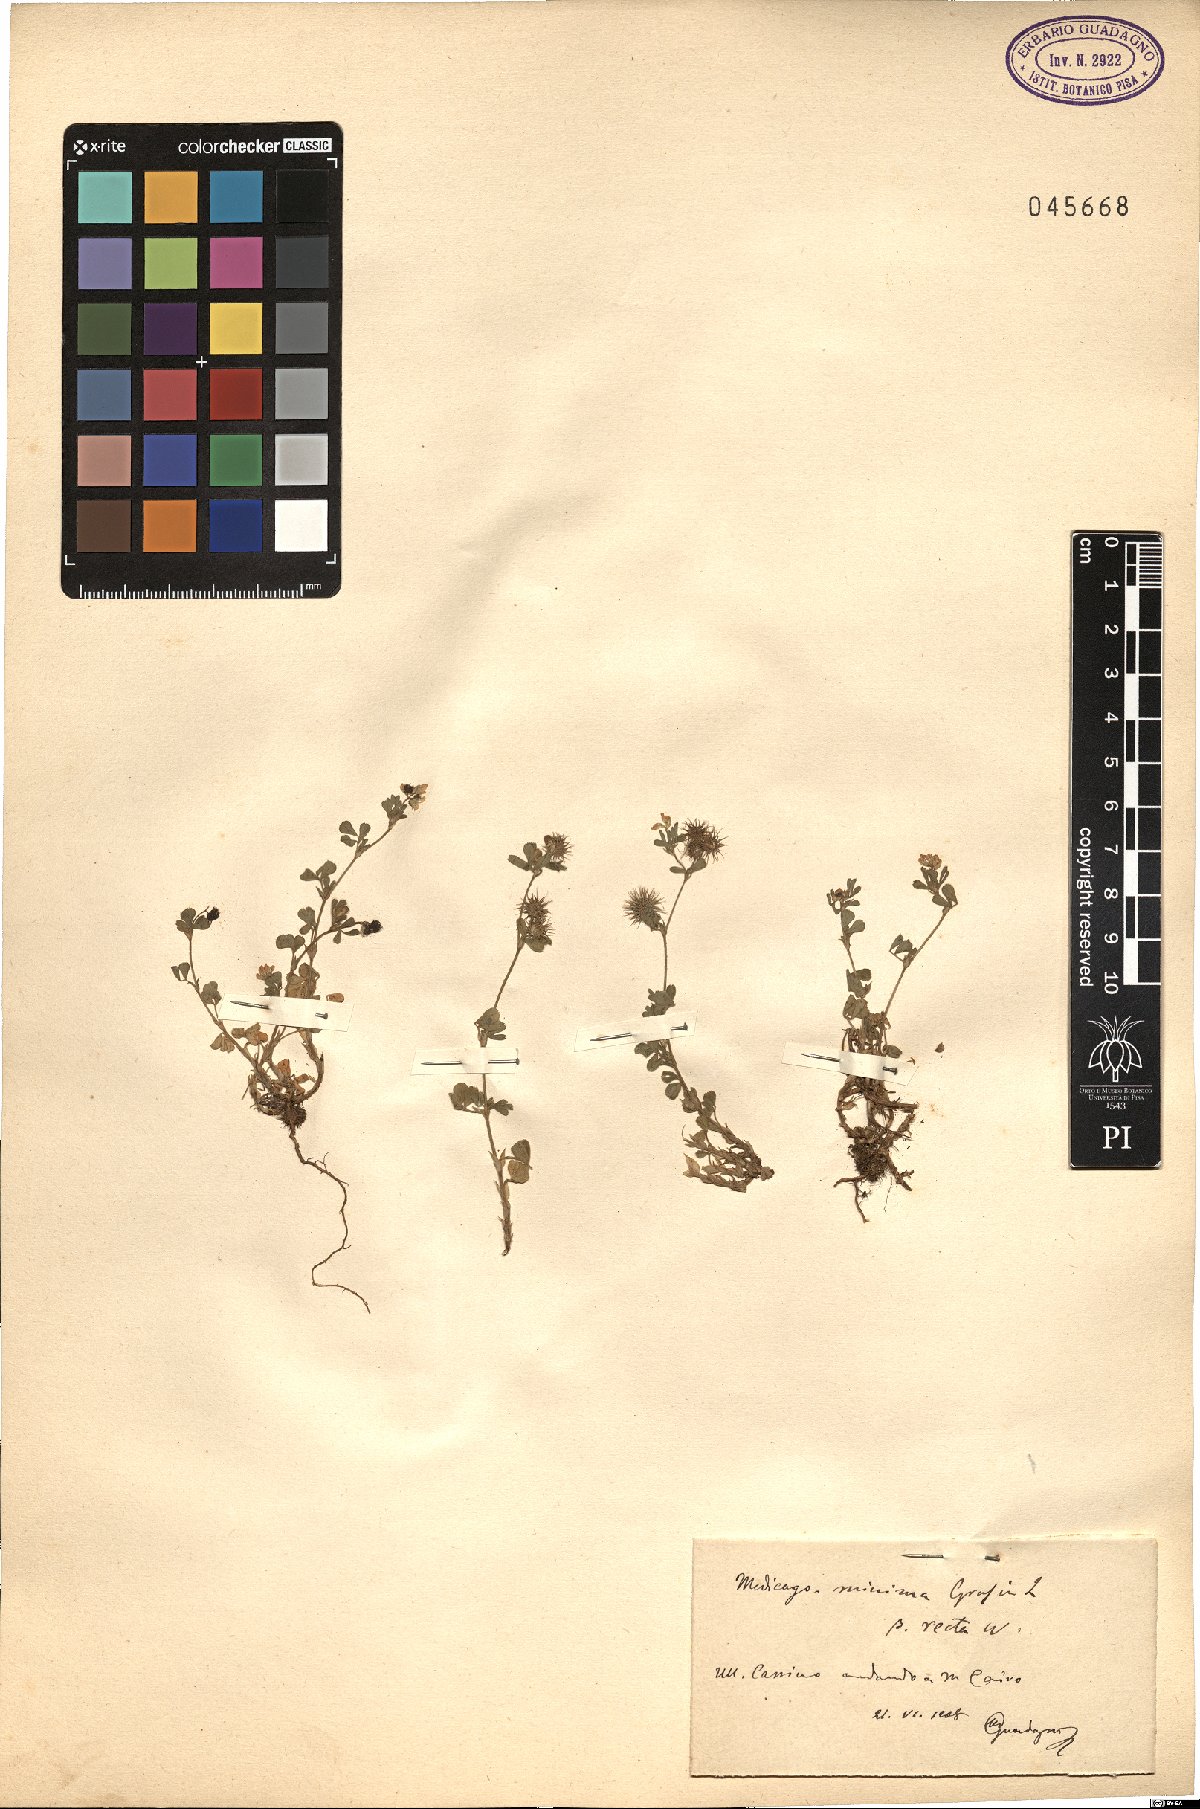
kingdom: Plantae
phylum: Tracheophyta
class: Magnoliopsida
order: Fabales
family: Fabaceae
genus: Medicago
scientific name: Medicago minima
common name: Little bur-clover
